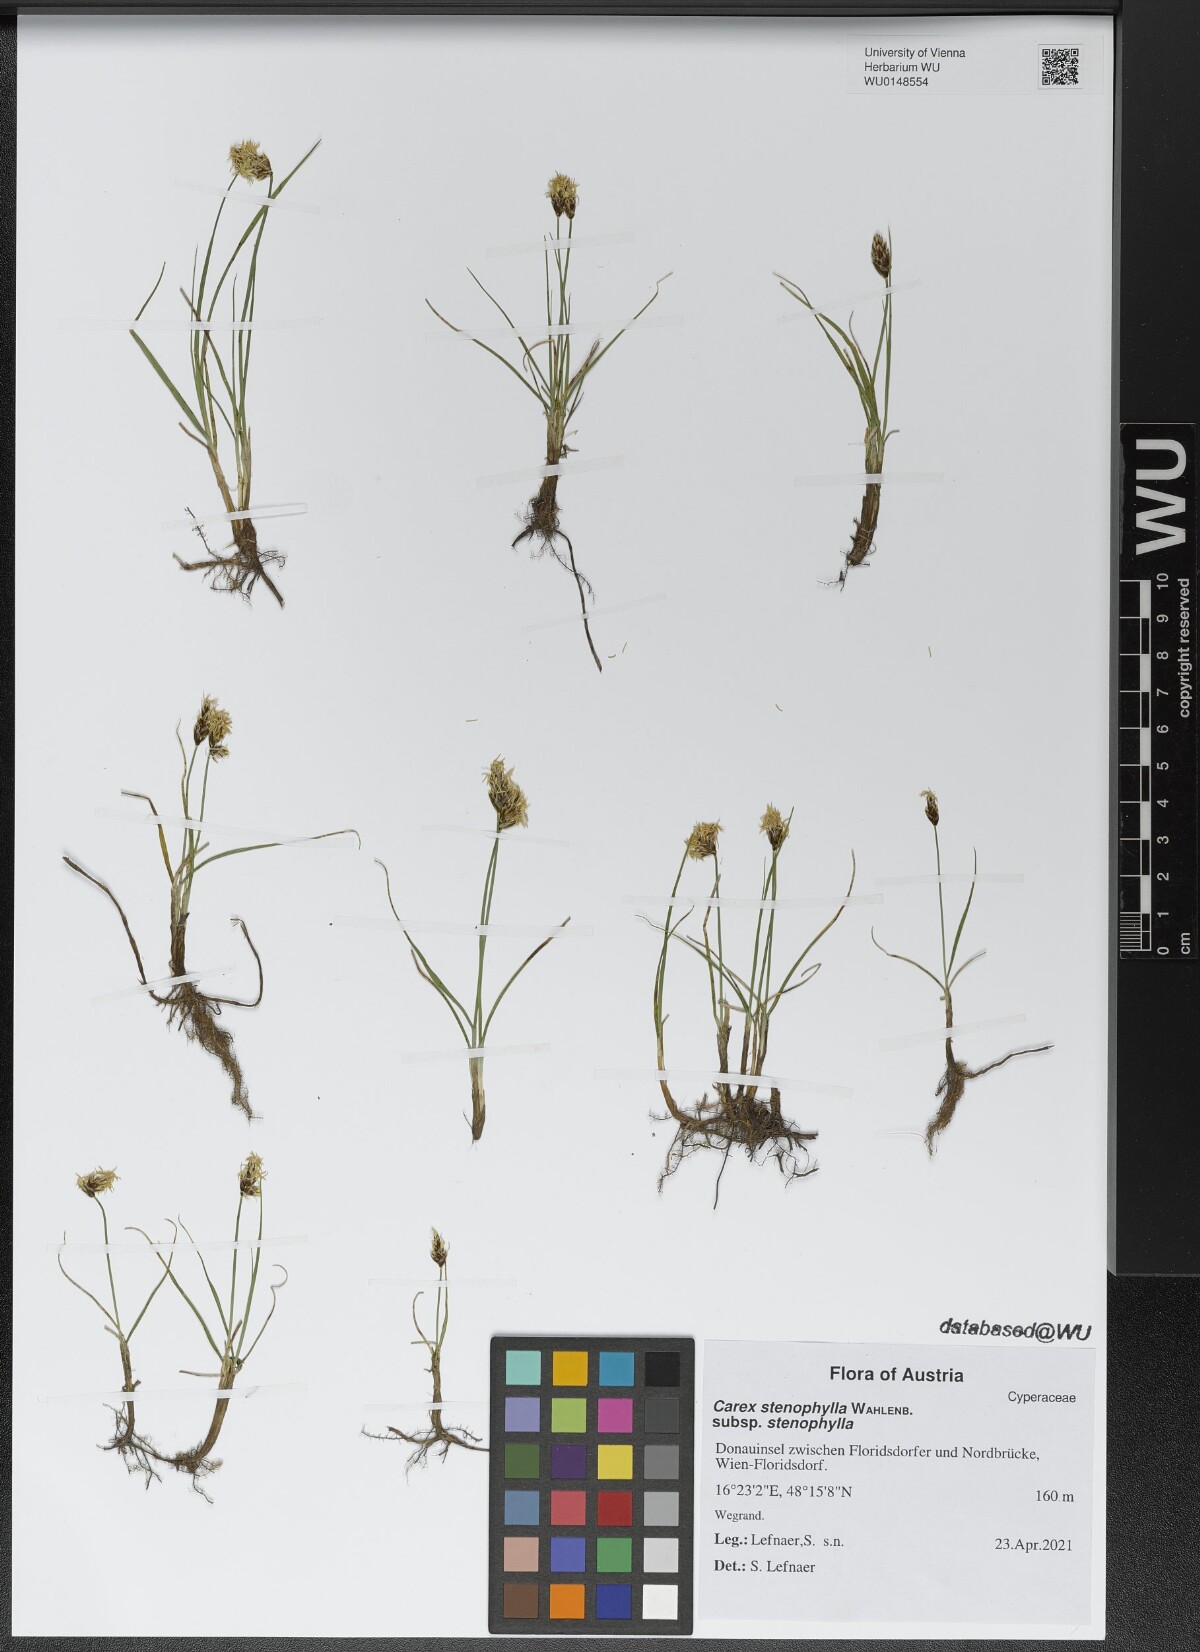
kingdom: Plantae
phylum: Tracheophyta
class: Liliopsida
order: Poales
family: Cyperaceae
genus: Carex
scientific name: Carex stenophylla
